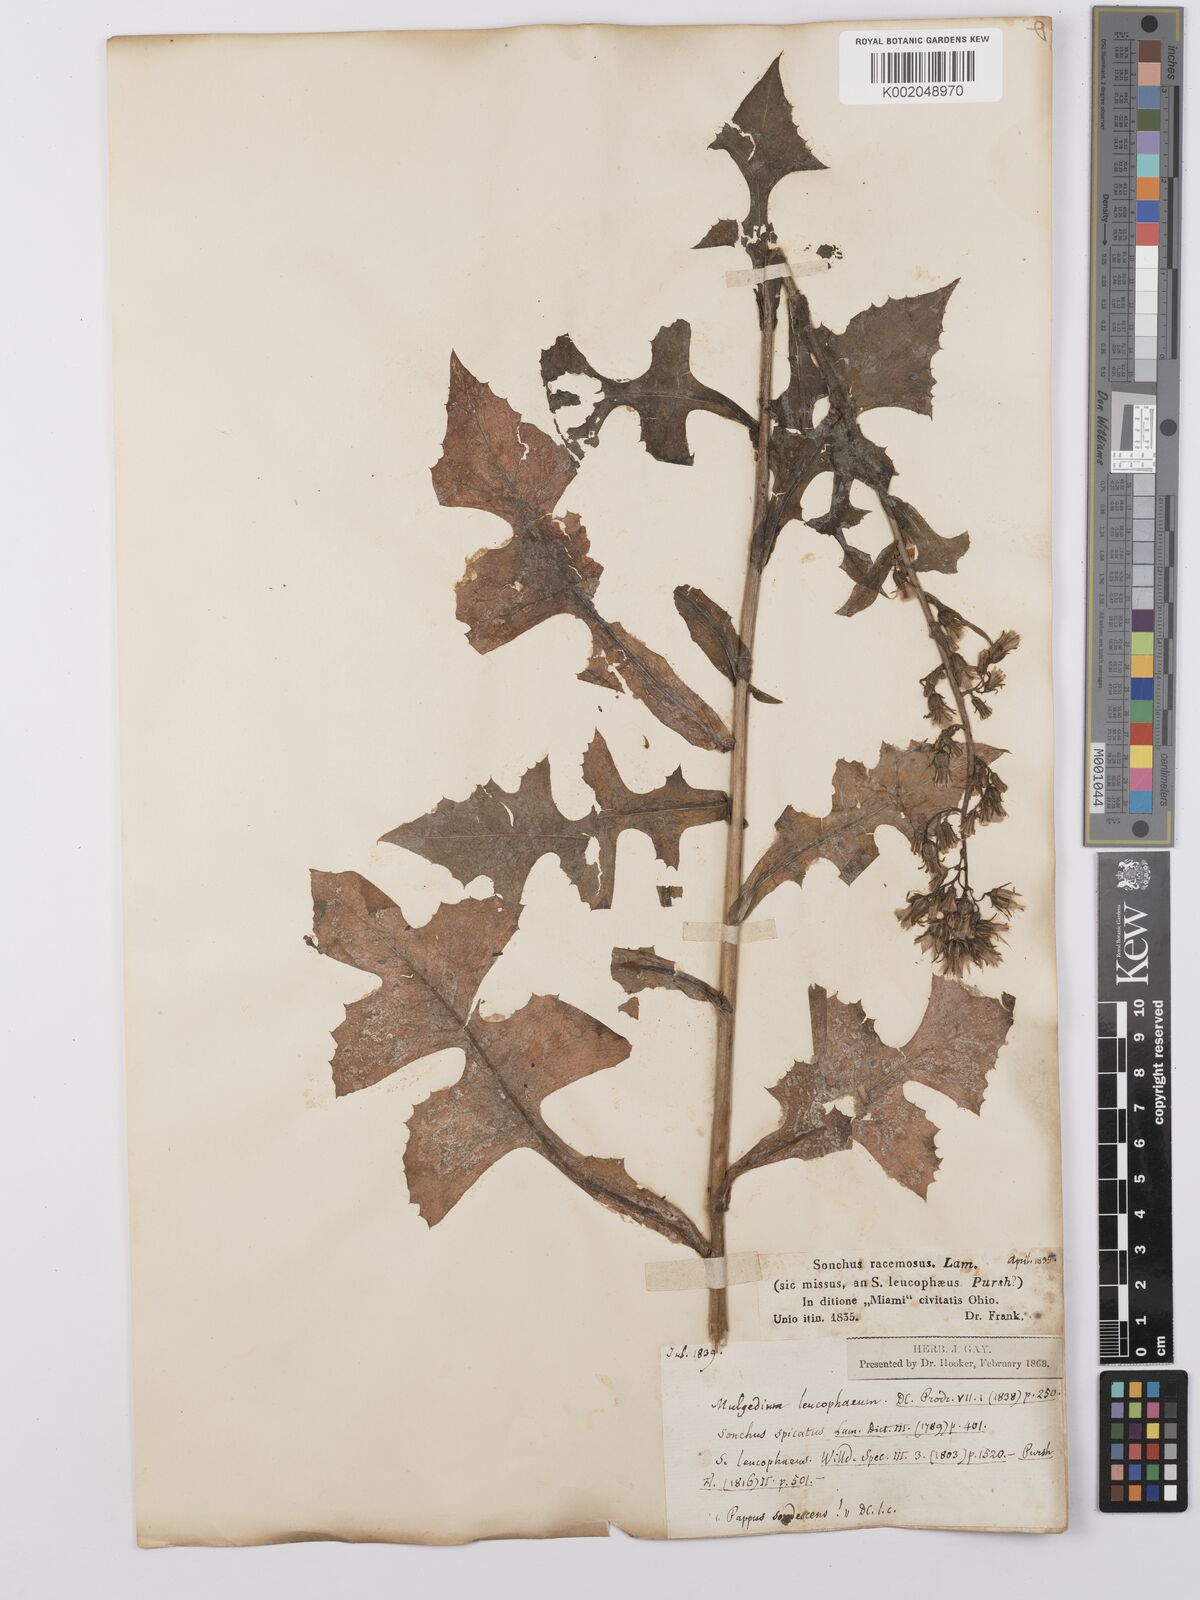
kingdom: Plantae
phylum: Tracheophyta
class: Magnoliopsida
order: Asterales
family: Asteraceae
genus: Lactuca
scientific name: Lactuca
